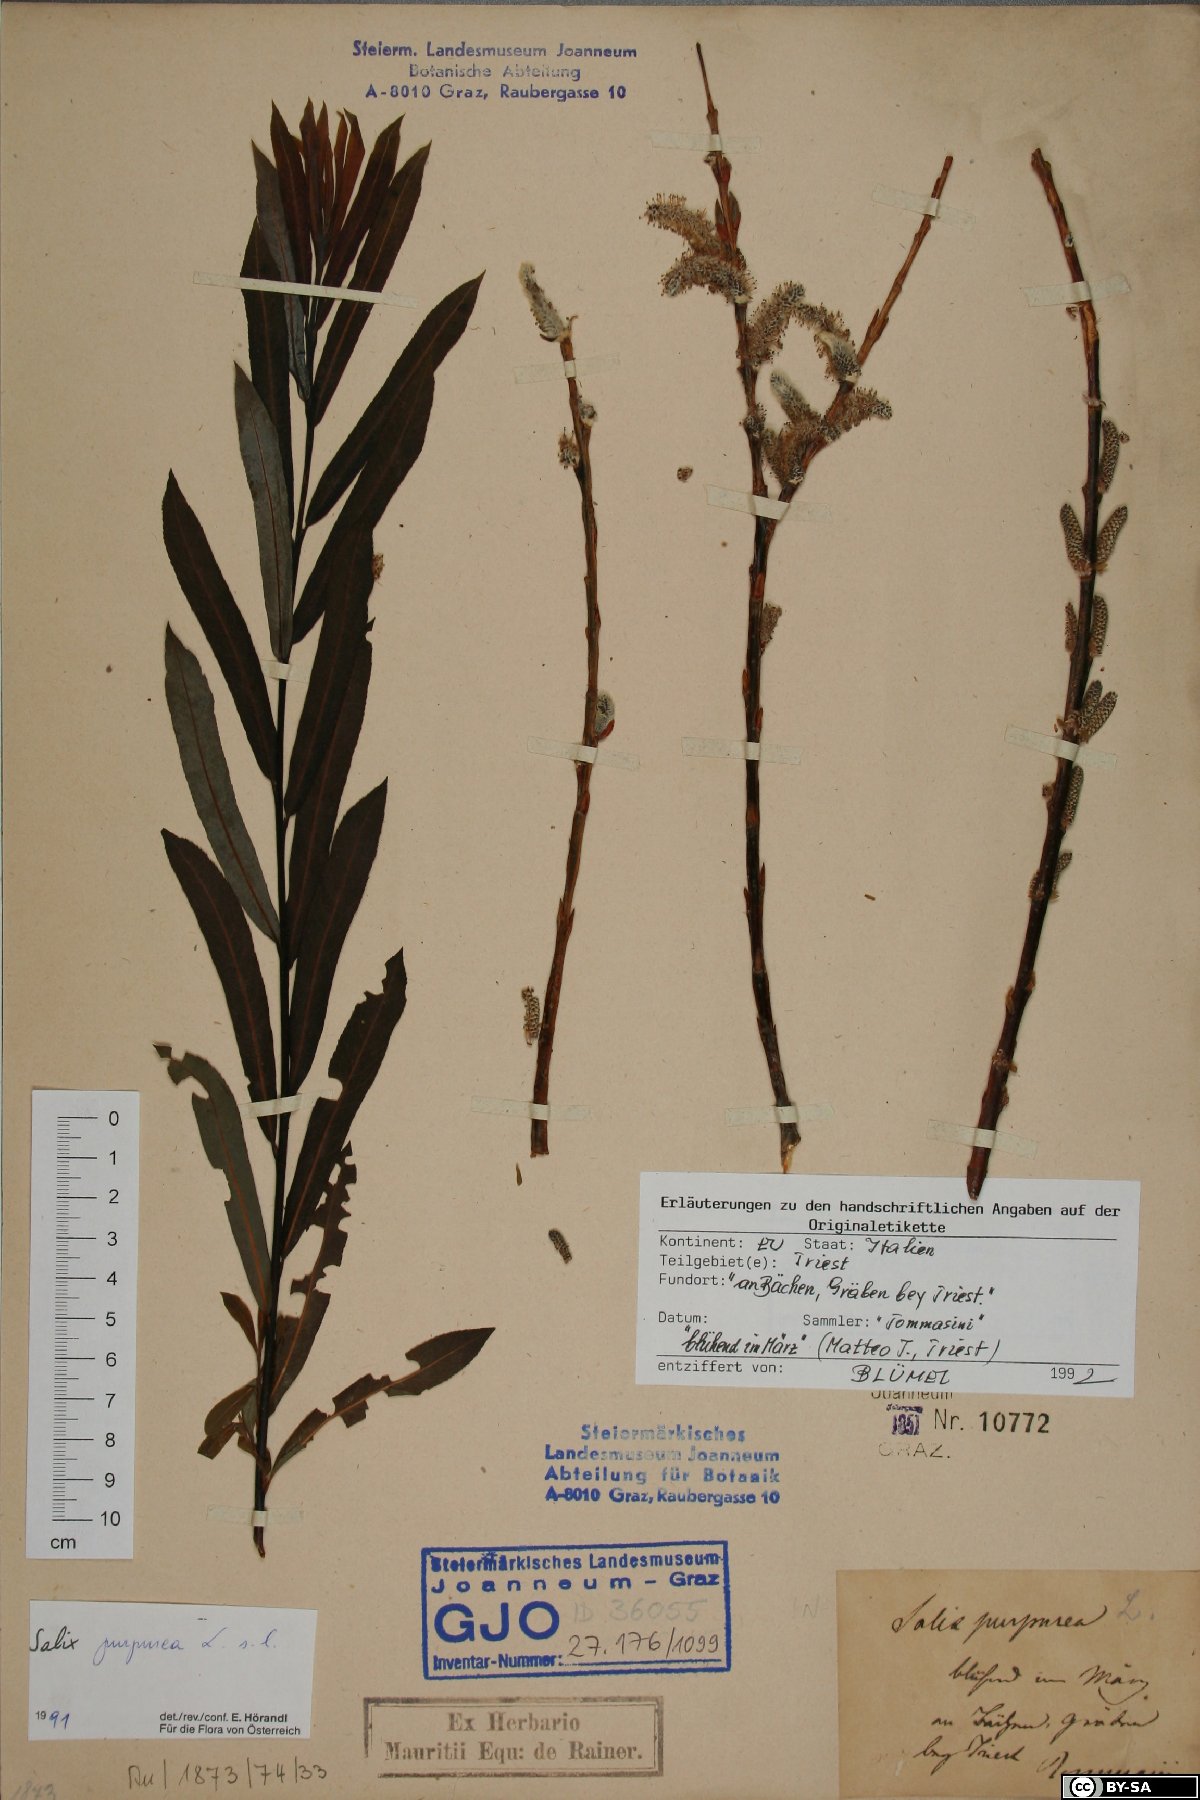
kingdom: Plantae
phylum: Tracheophyta
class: Magnoliopsida
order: Malpighiales
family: Salicaceae
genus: Salix
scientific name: Salix purpurea
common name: Purple willow
